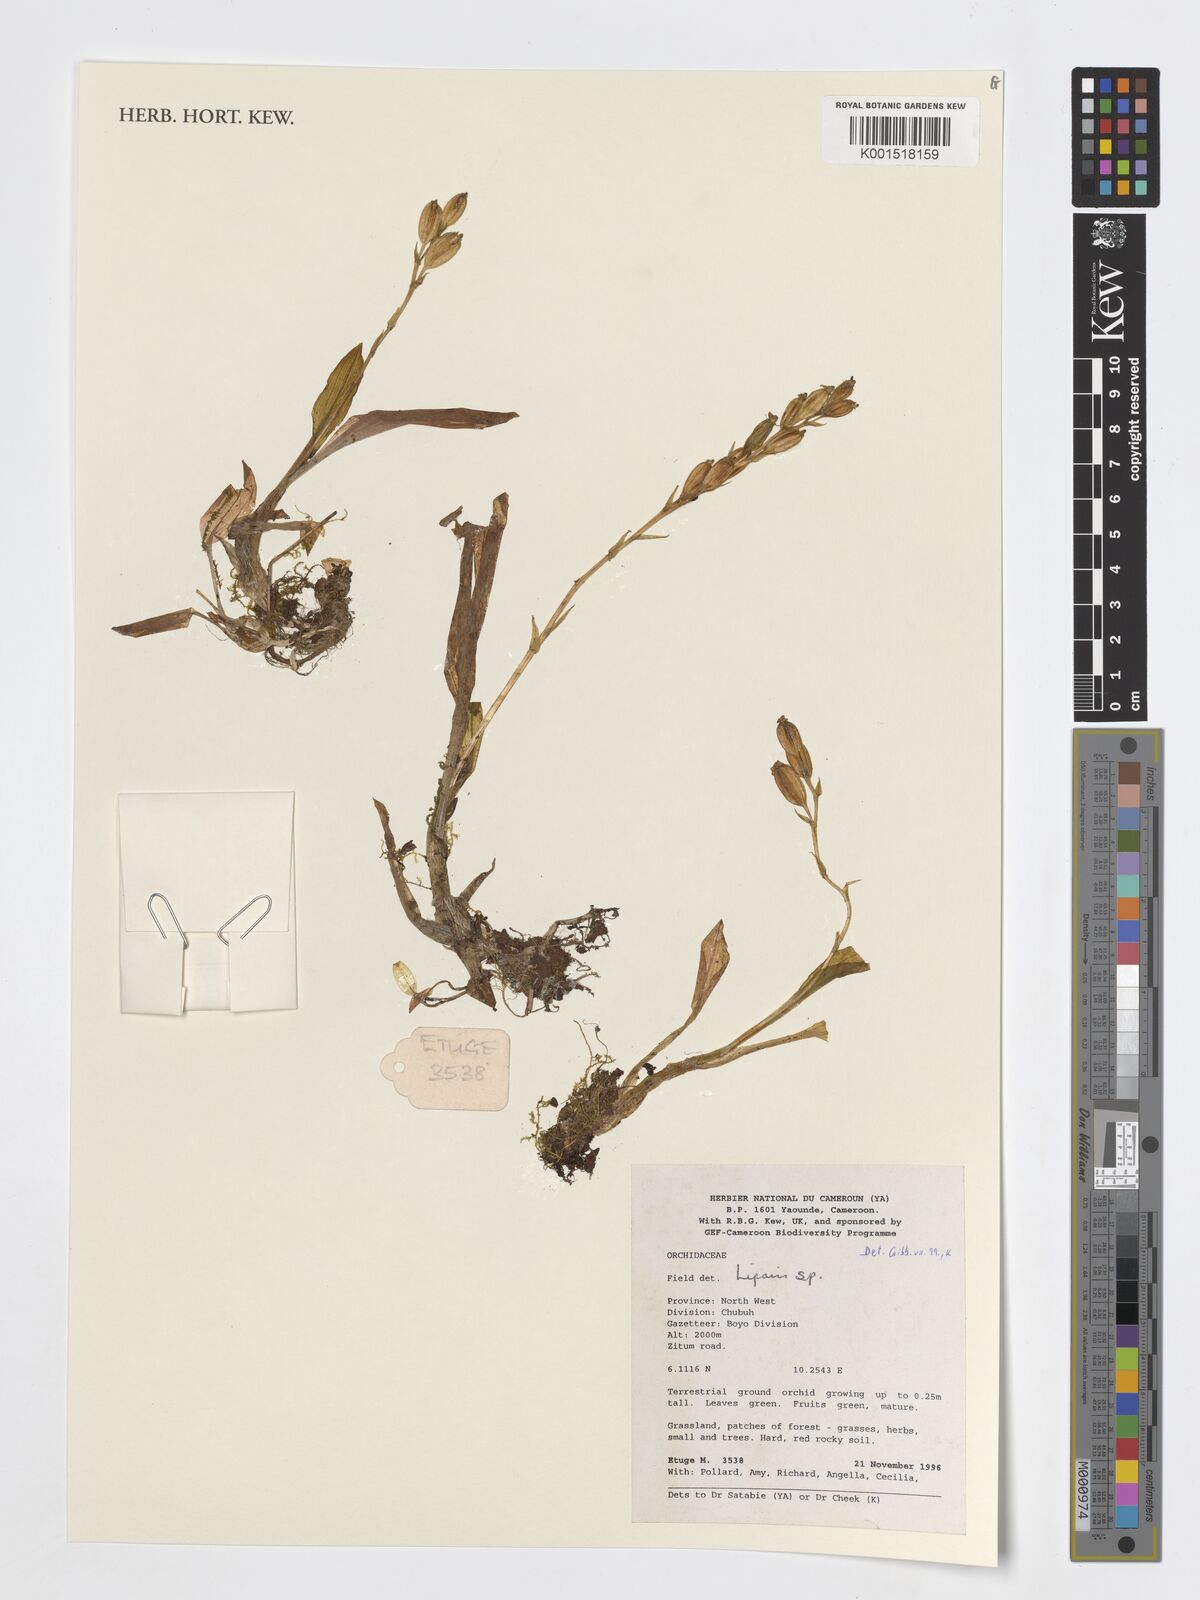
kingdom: Plantae
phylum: Tracheophyta
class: Liliopsida
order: Asparagales
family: Orchidaceae
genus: Liparis
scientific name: Liparis
